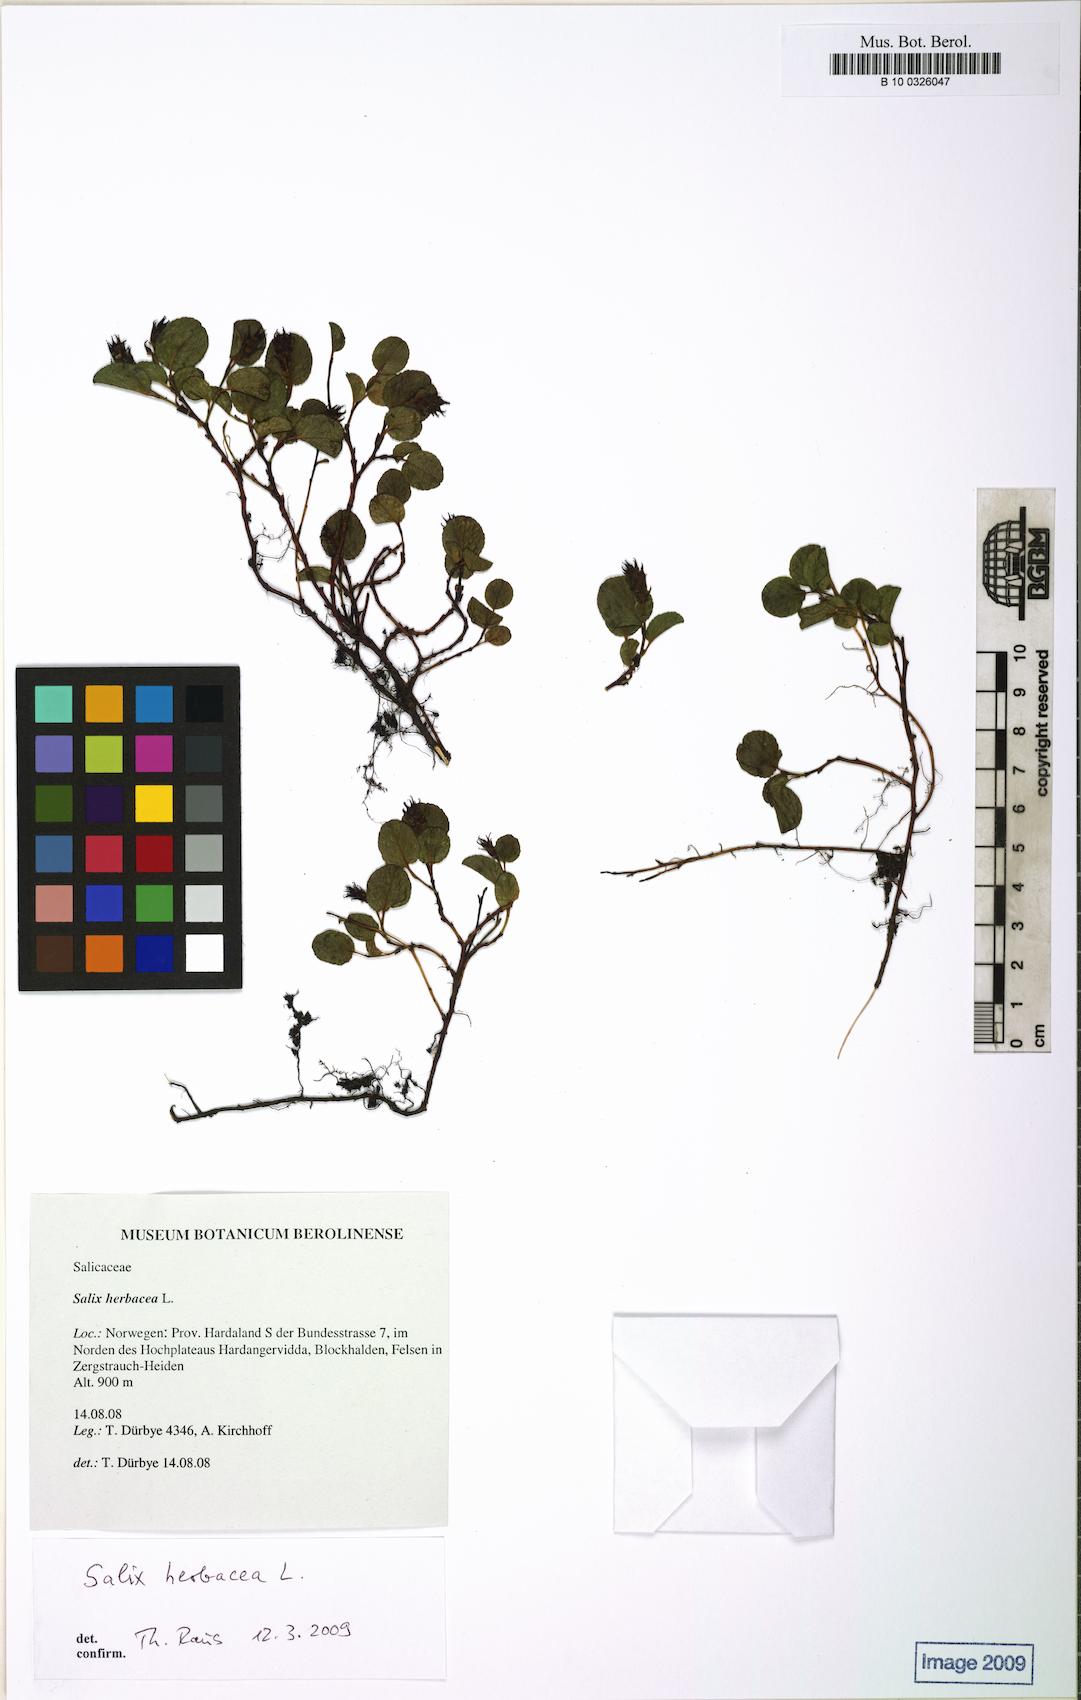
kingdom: Plantae
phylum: Tracheophyta
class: Magnoliopsida
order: Malpighiales
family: Salicaceae
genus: Salix
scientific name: Salix herbacea
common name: Dwarf willow
